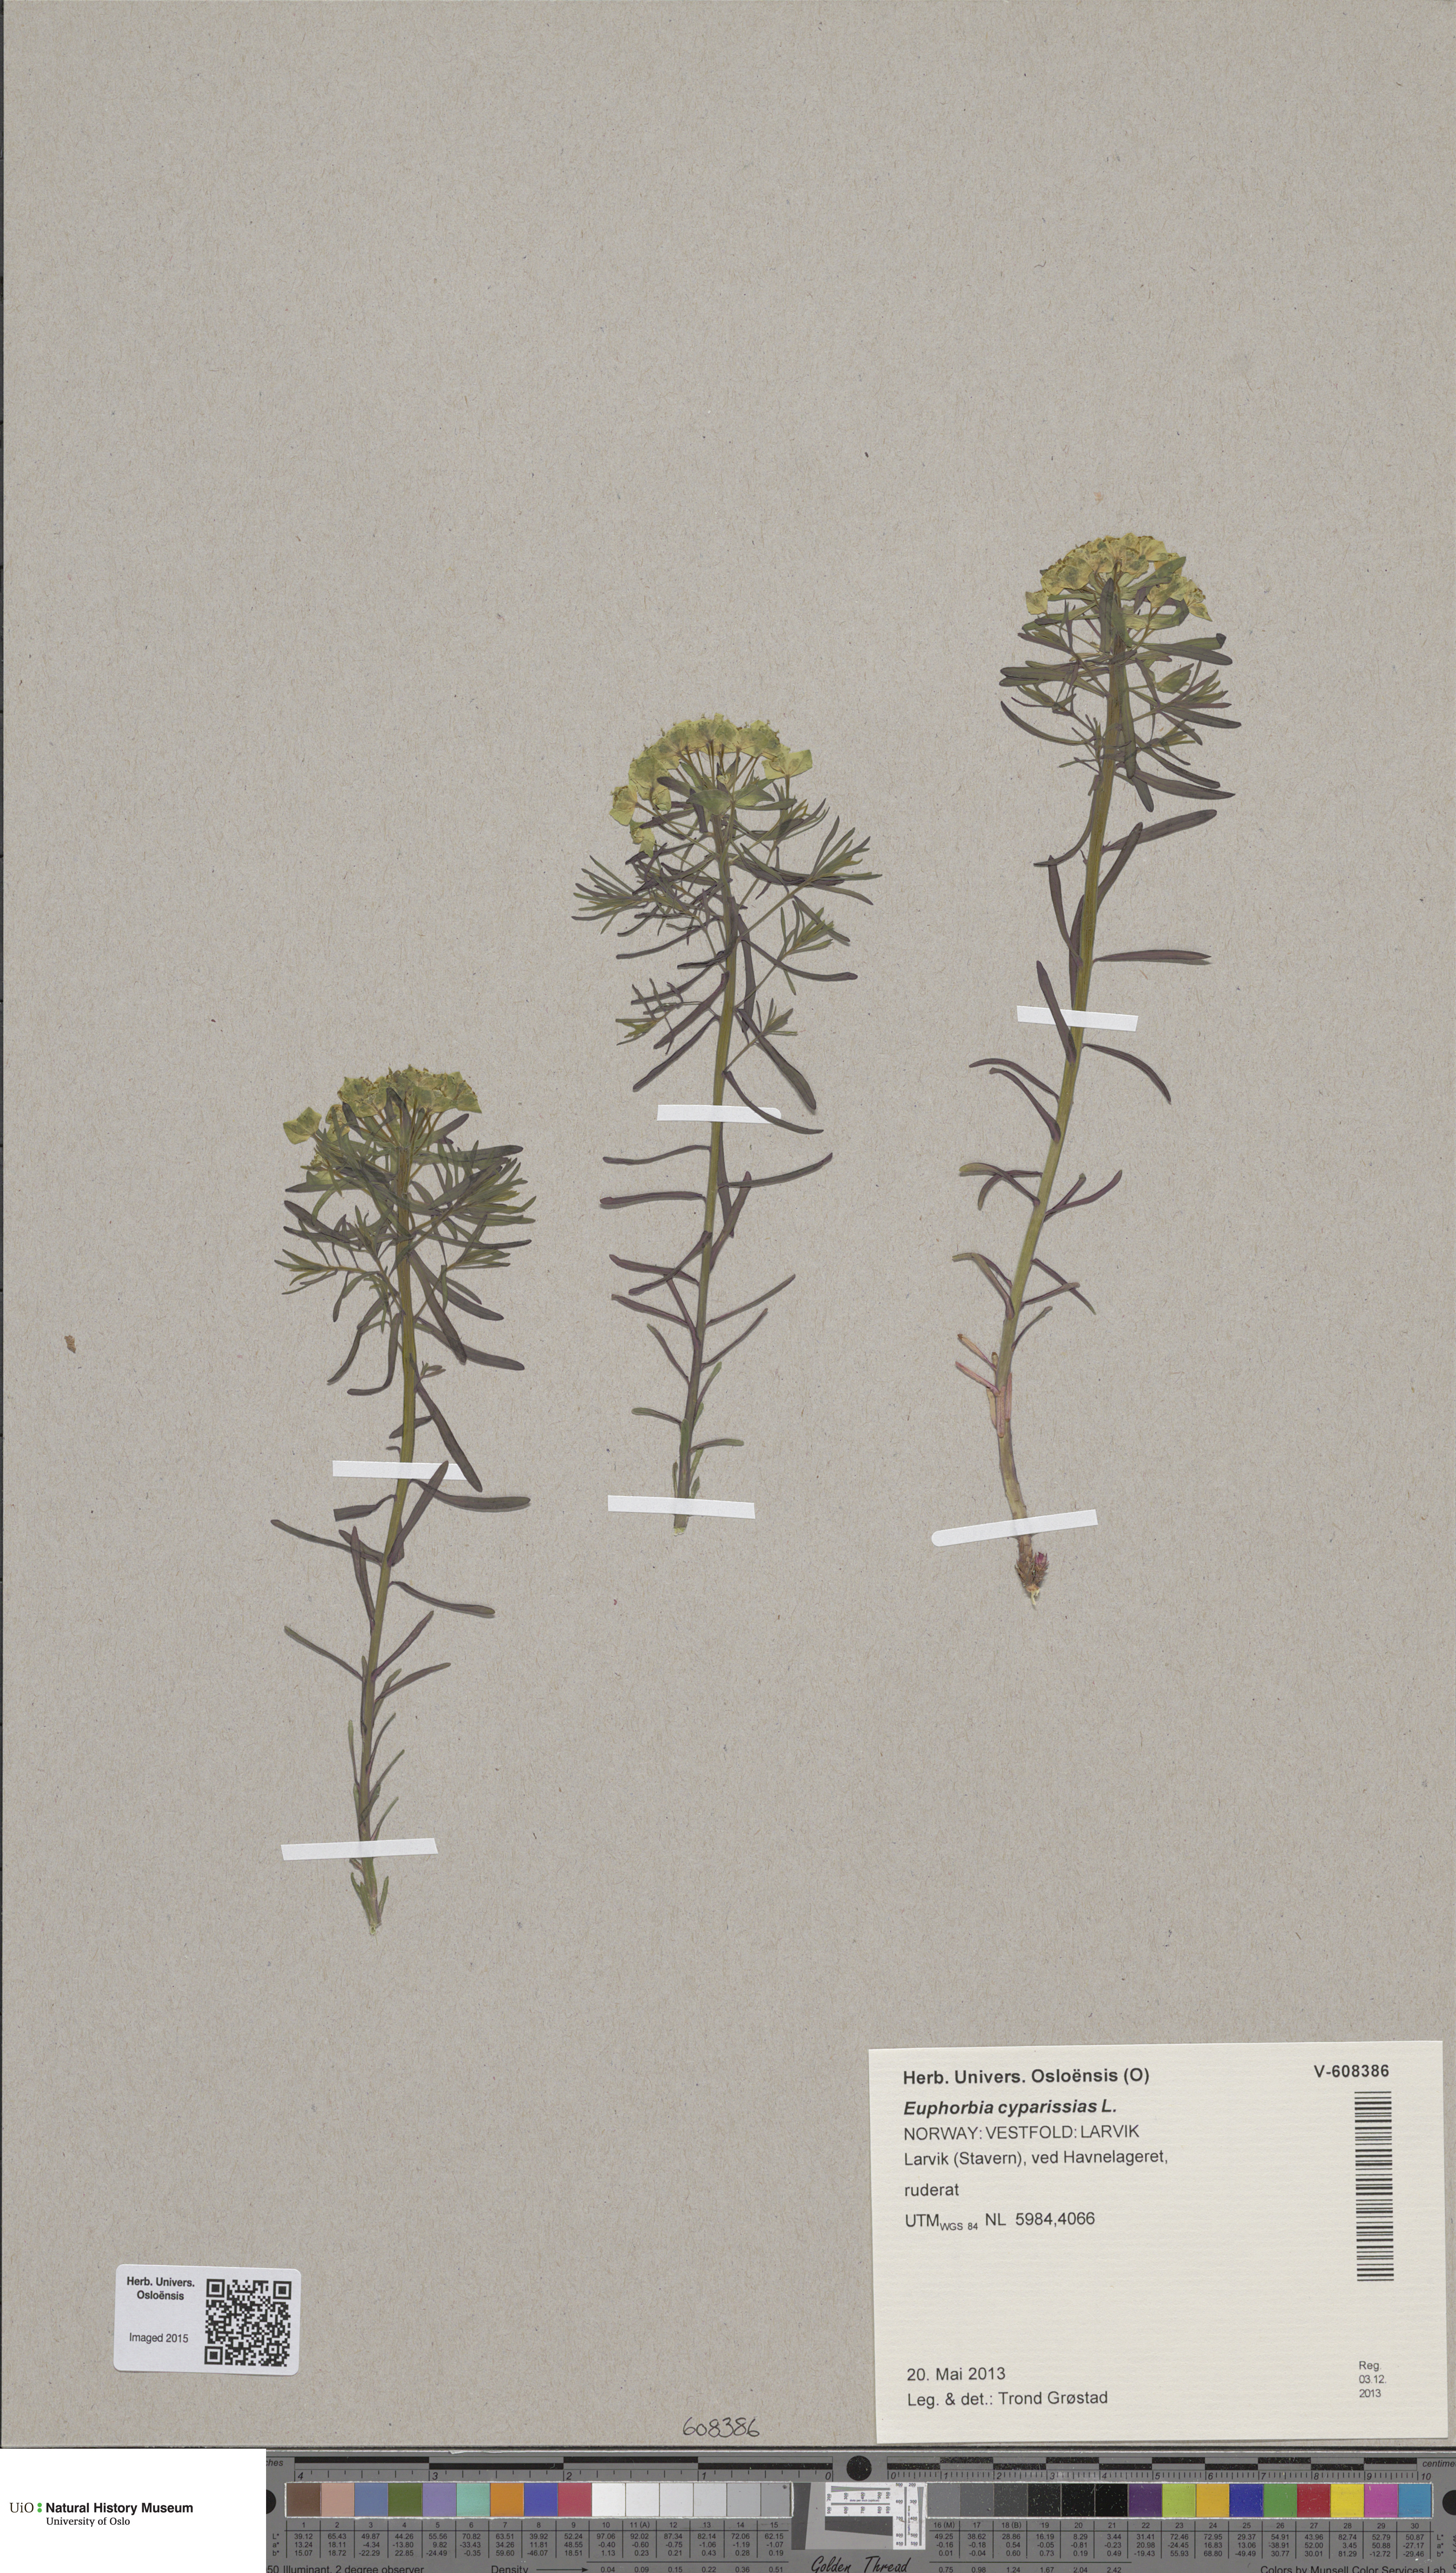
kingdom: Plantae
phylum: Tracheophyta
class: Magnoliopsida
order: Malpighiales
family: Euphorbiaceae
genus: Euphorbia
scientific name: Euphorbia cyparissias
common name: Cypress spurge
